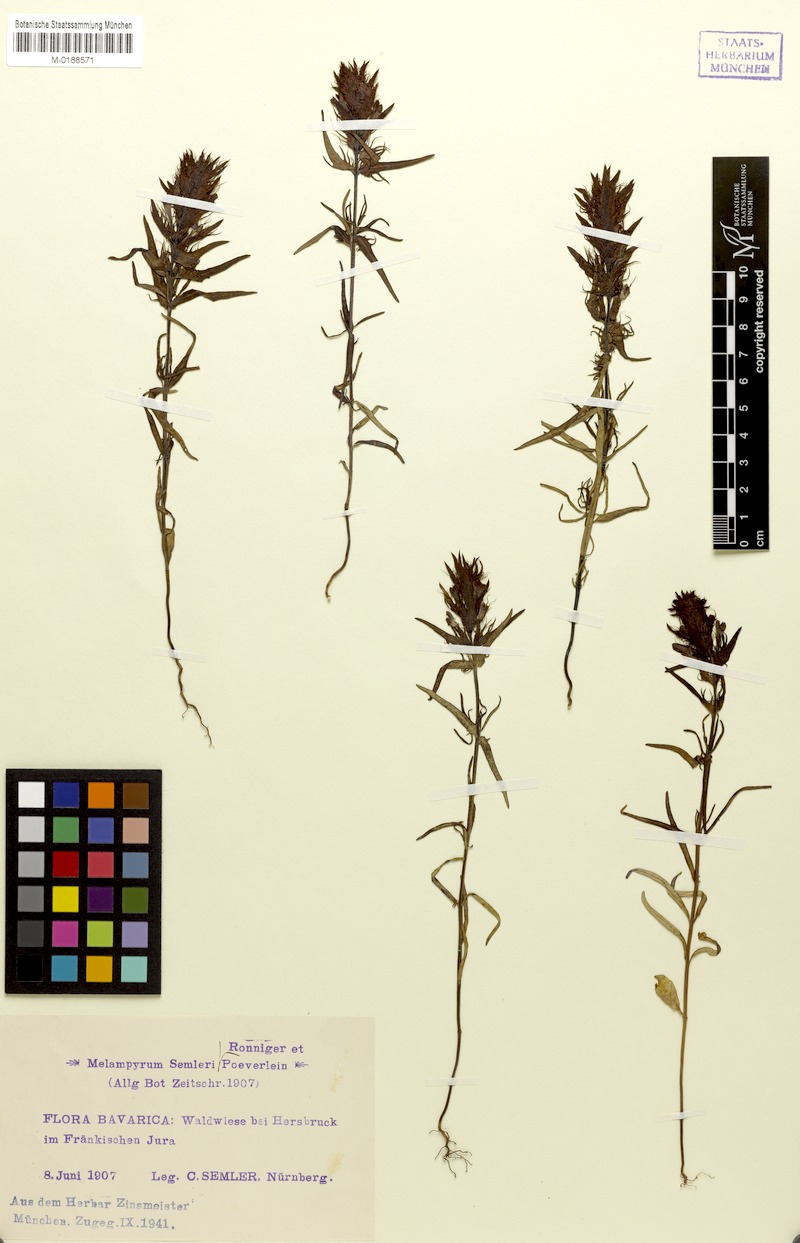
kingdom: Plantae
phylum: Tracheophyta
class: Magnoliopsida
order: Lamiales
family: Orobanchaceae
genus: Melampyrum
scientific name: Melampyrum arvense
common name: Field cow-wheat
